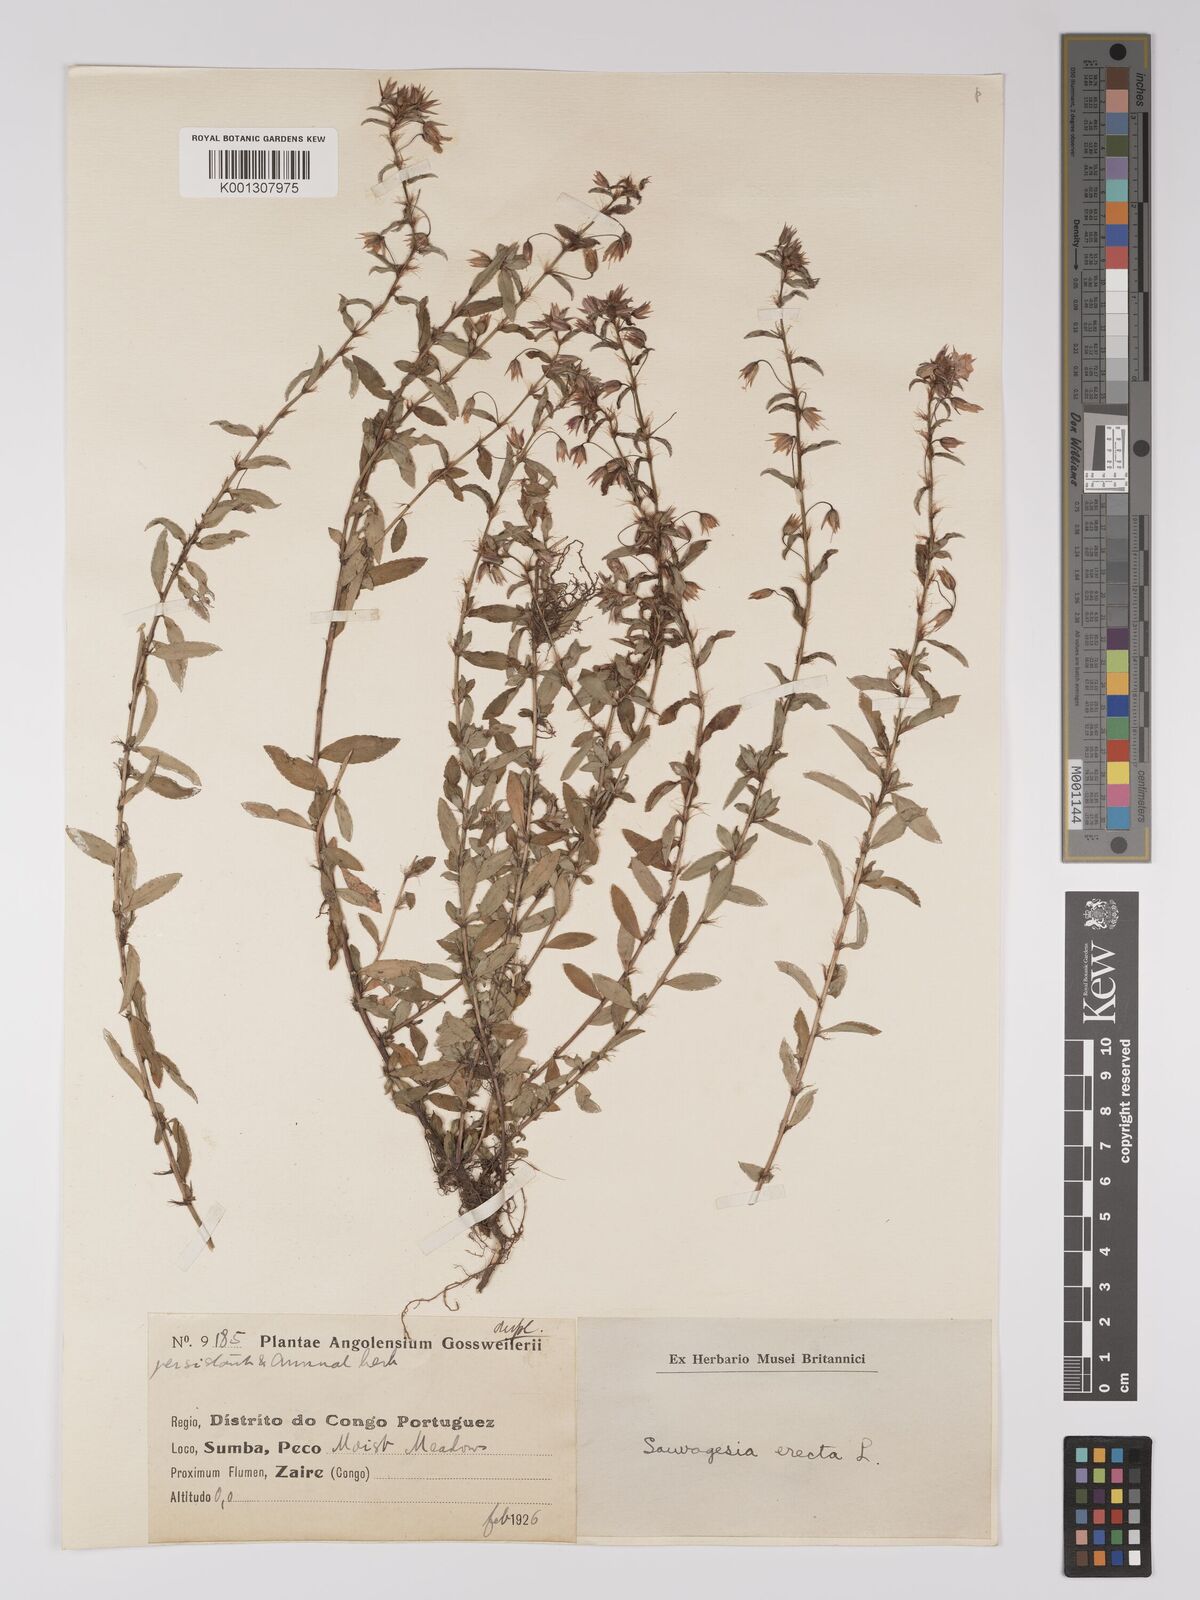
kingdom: Plantae
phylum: Tracheophyta
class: Magnoliopsida
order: Malpighiales
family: Ochnaceae
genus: Sauvagesia
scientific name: Sauvagesia erecta
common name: Creole tea
